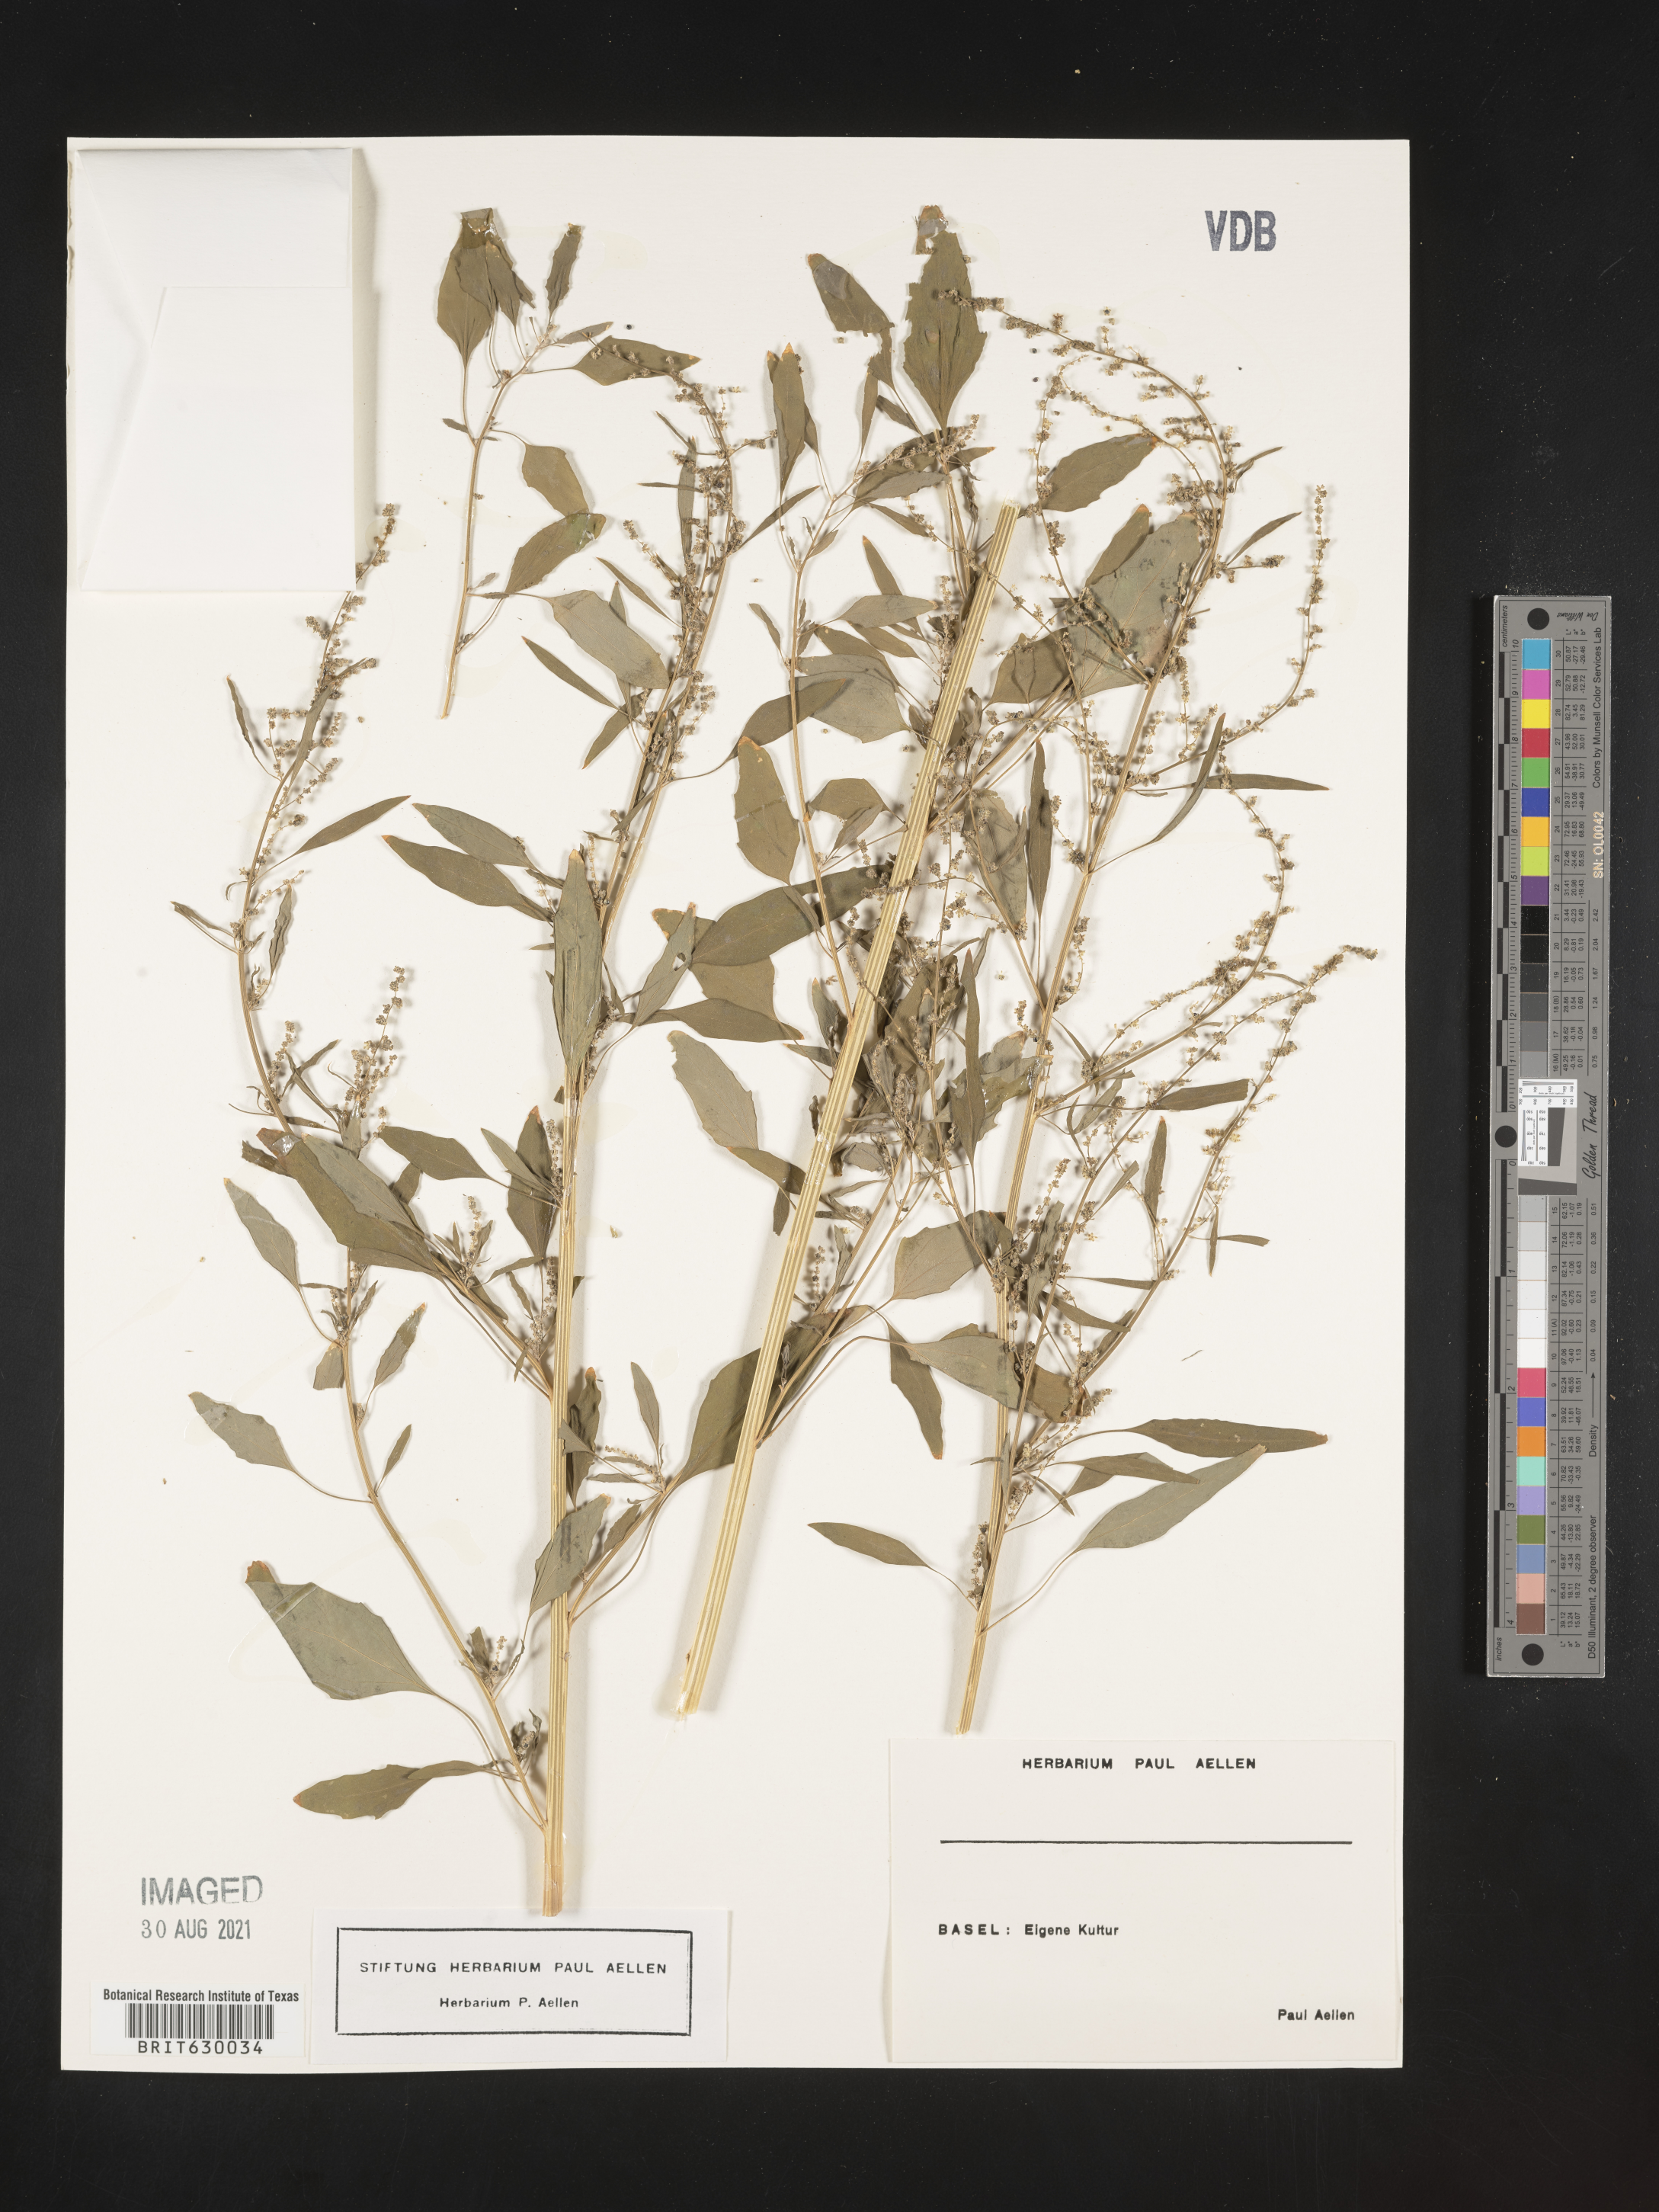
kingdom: Plantae
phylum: Tracheophyta
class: Magnoliopsida
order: Caryophyllales
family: Amaranthaceae
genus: Chenopodium
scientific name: Chenopodium
